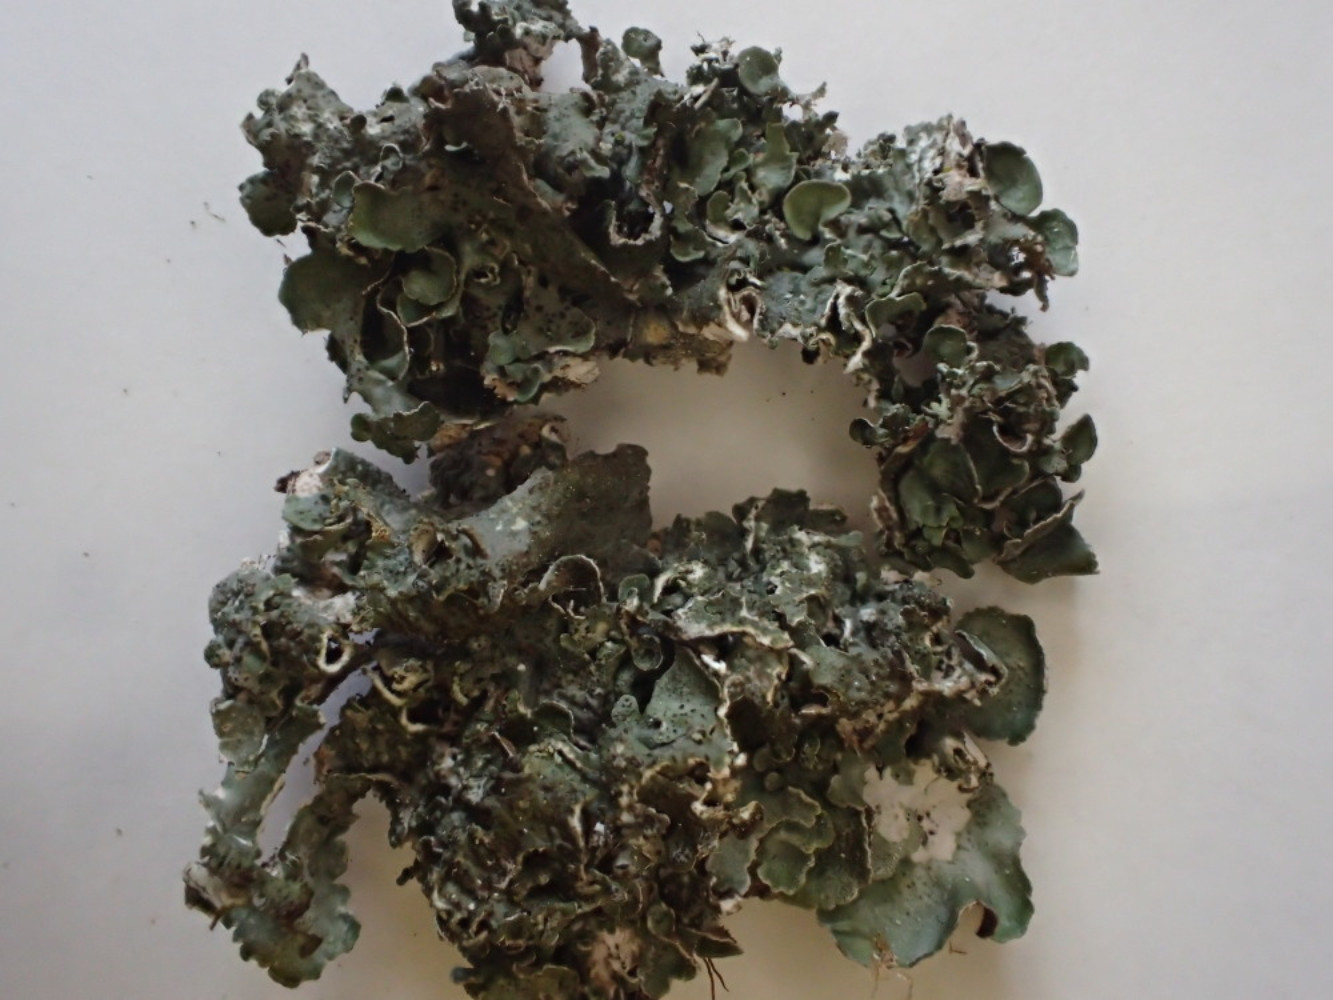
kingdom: Fungi
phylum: Ascomycota
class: Lecanoromycetes
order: Lecanorales
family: Parmeliaceae
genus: Pleurosticta
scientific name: Pleurosticta acetabulum
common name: stor skållav
